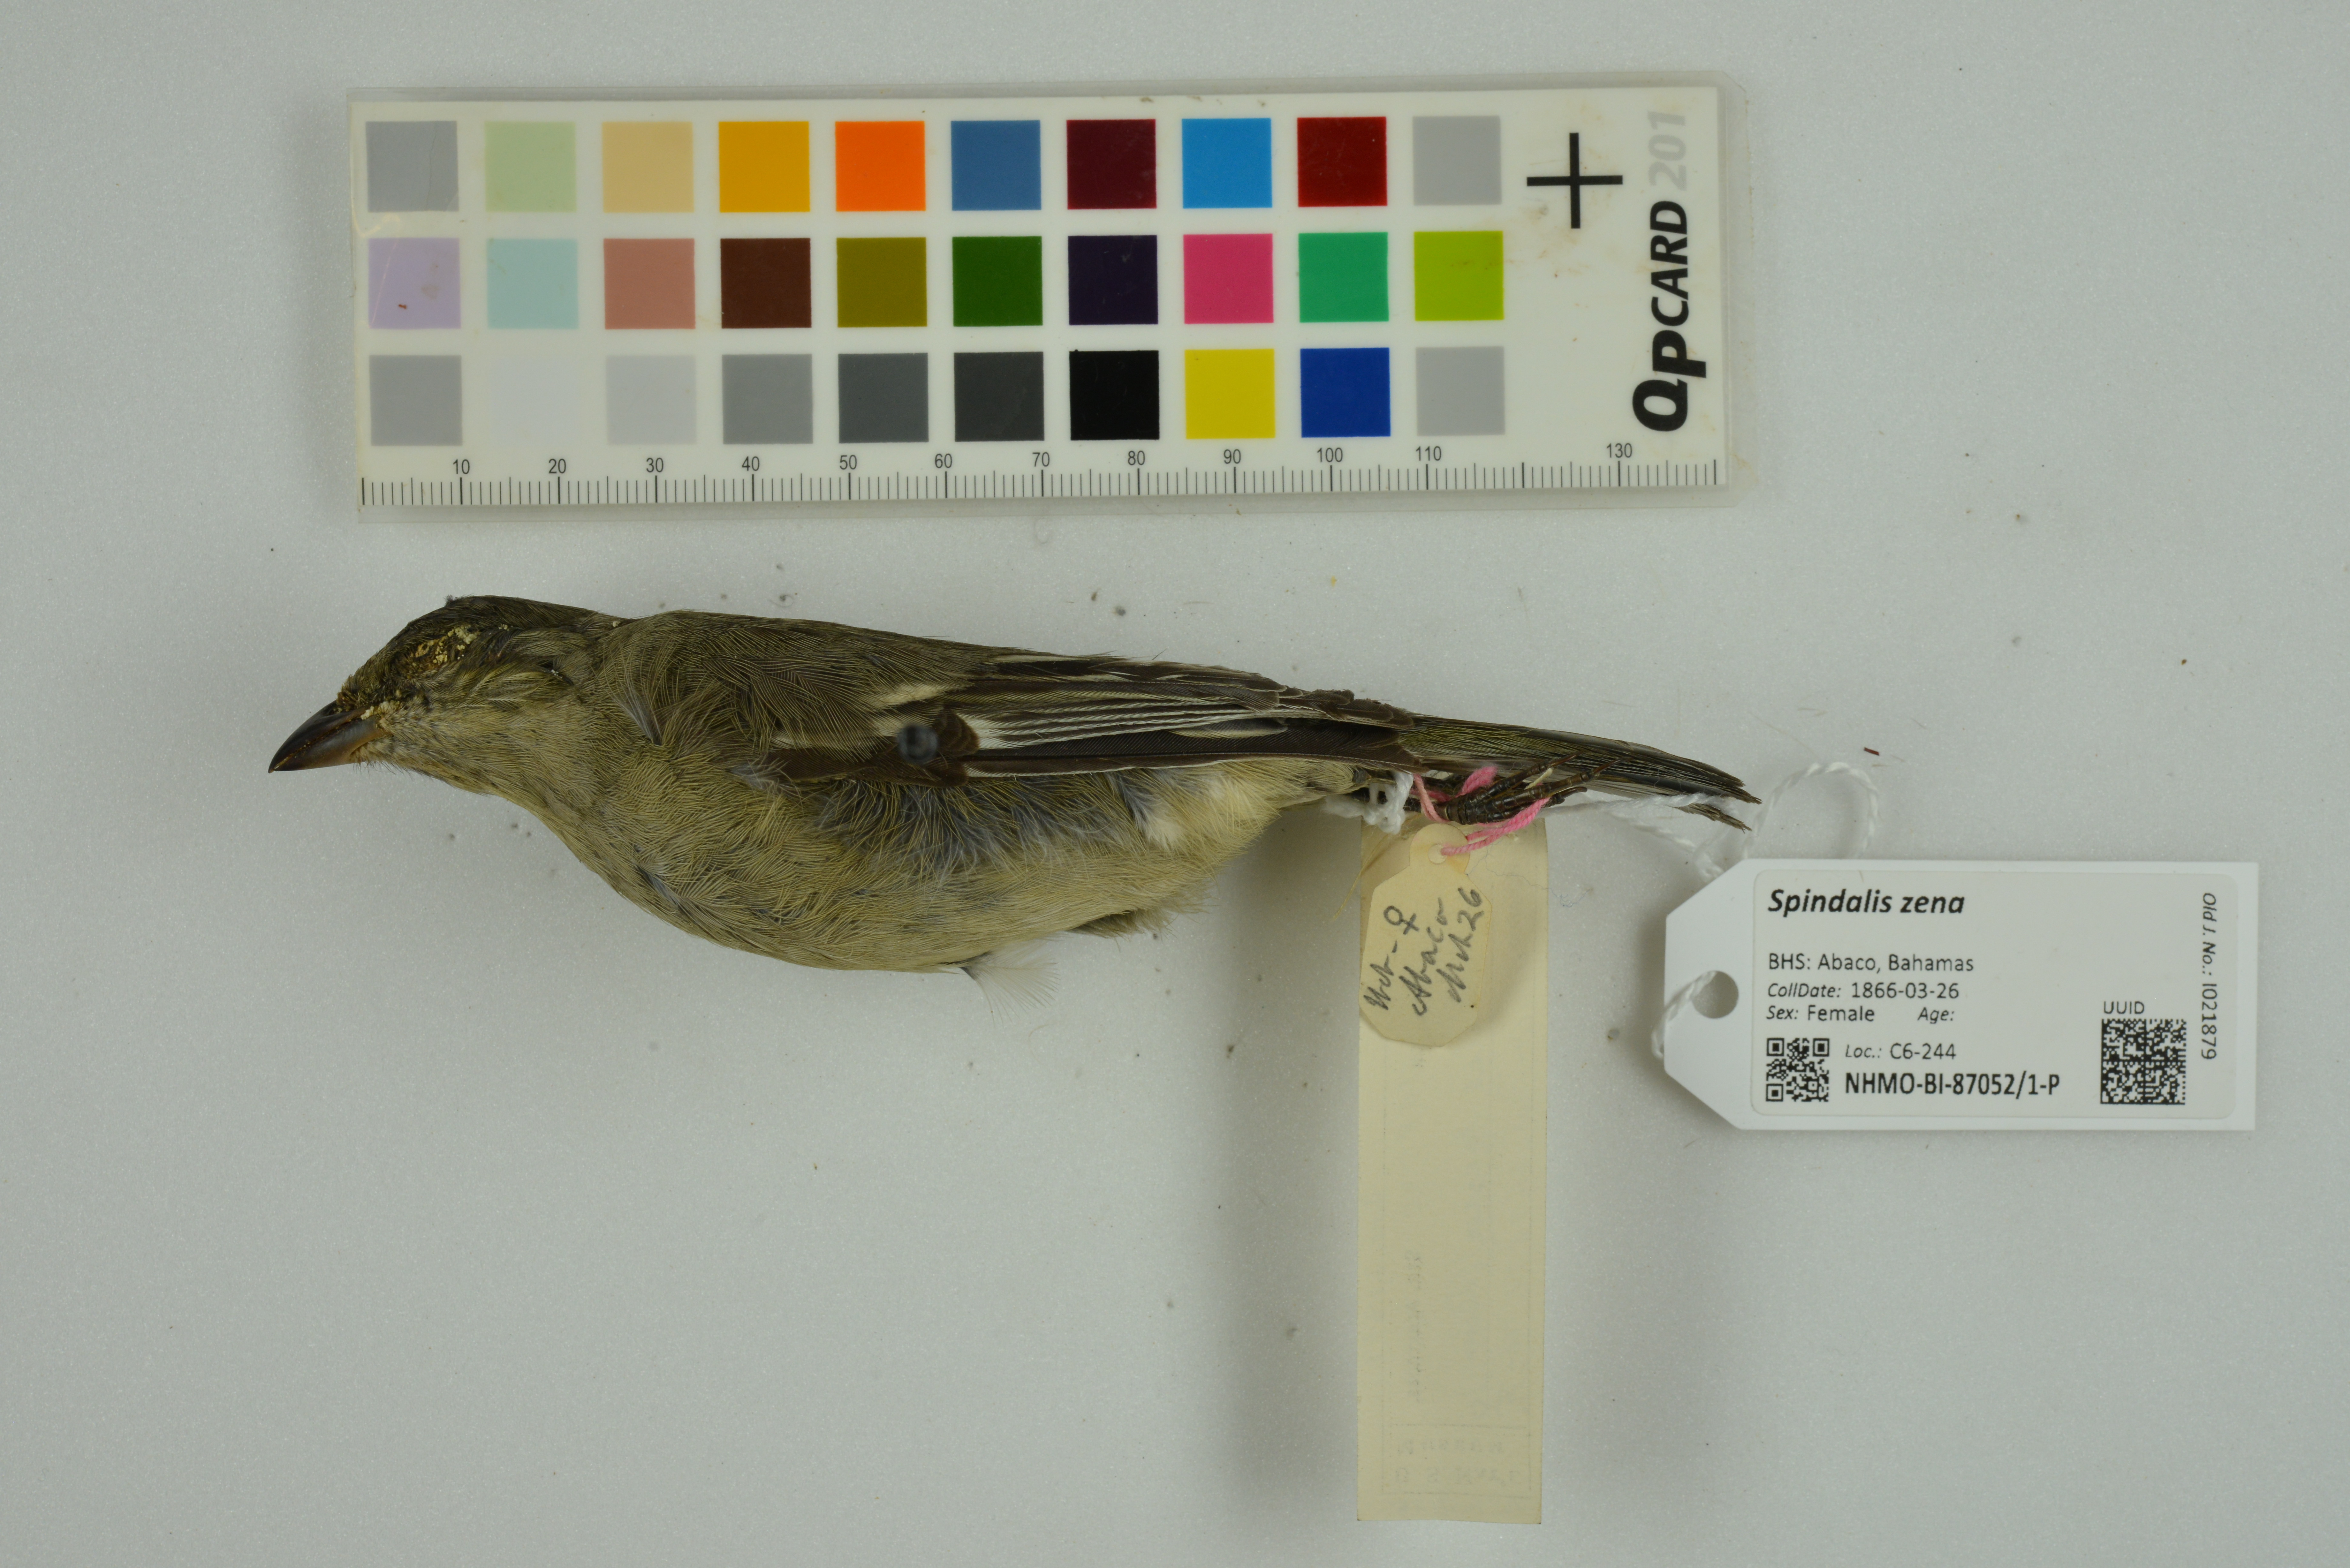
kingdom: Animalia
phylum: Chordata
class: Aves
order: Passeriformes
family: Spindalidae
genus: Spindalis
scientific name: Spindalis zena
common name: Western spindalis
